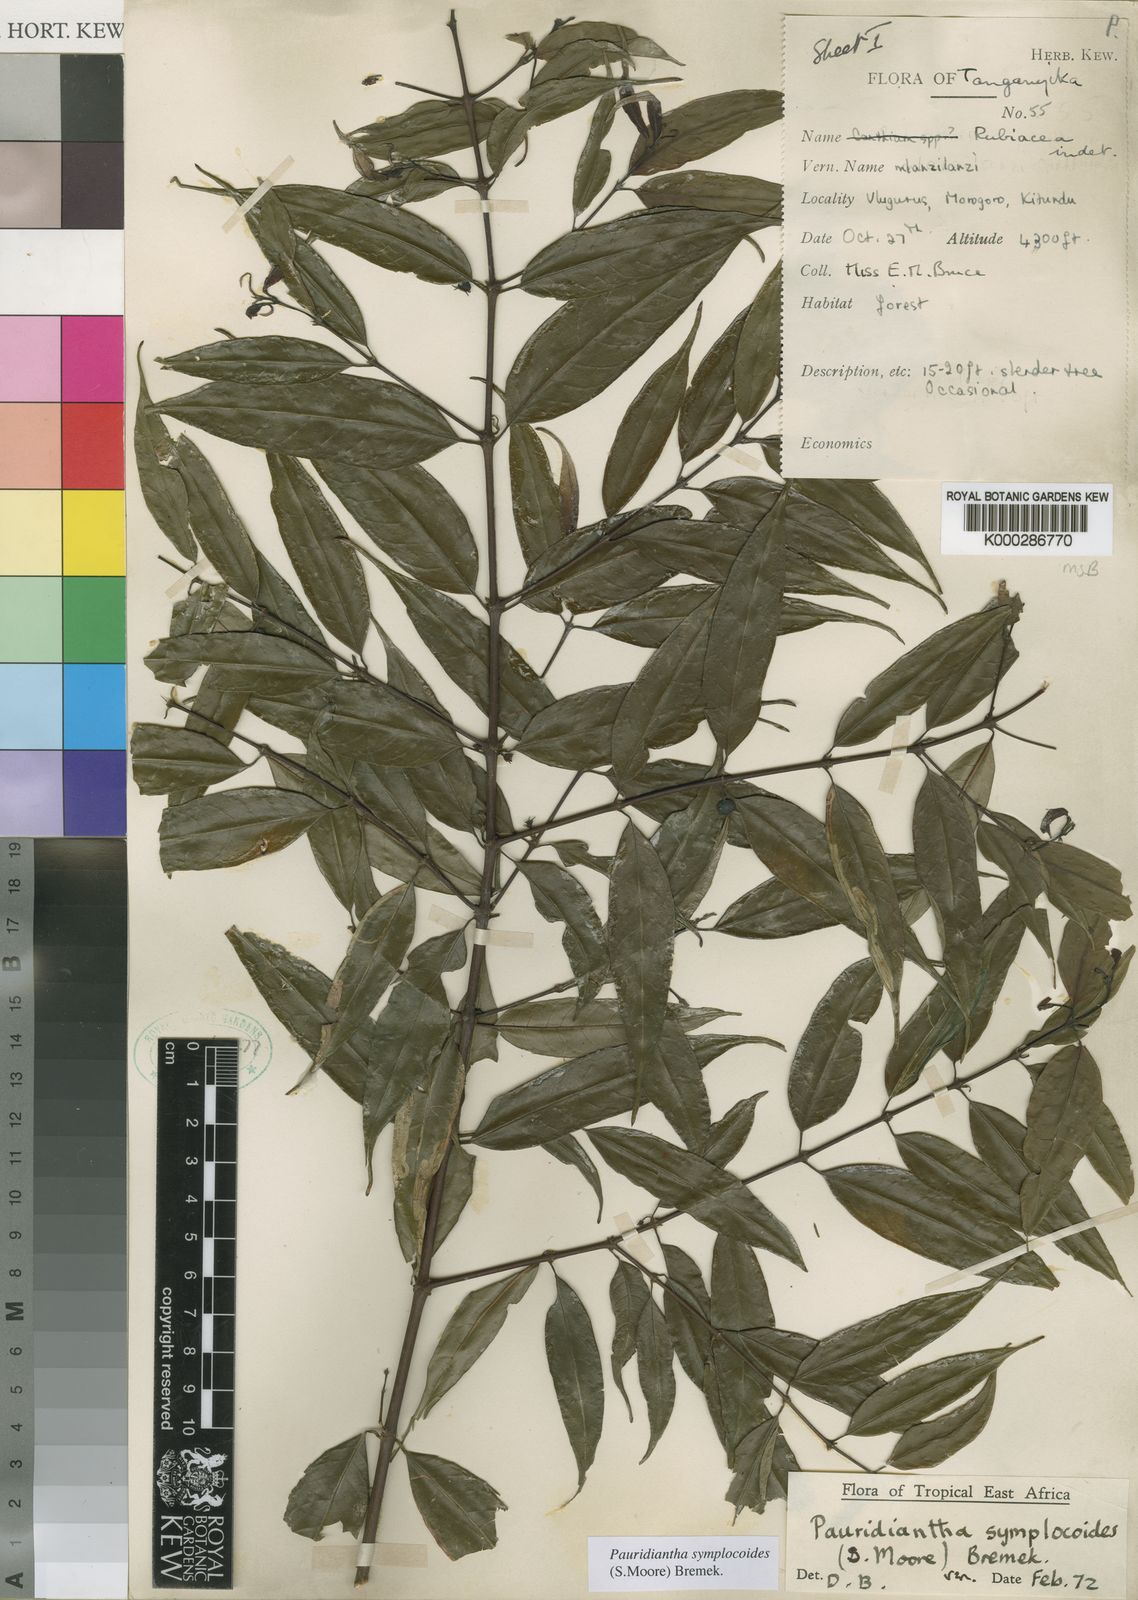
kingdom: Plantae
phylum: Tracheophyta
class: Magnoliopsida
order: Gentianales
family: Rubiaceae
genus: Pauridiantha
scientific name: Pauridiantha symplocoides
